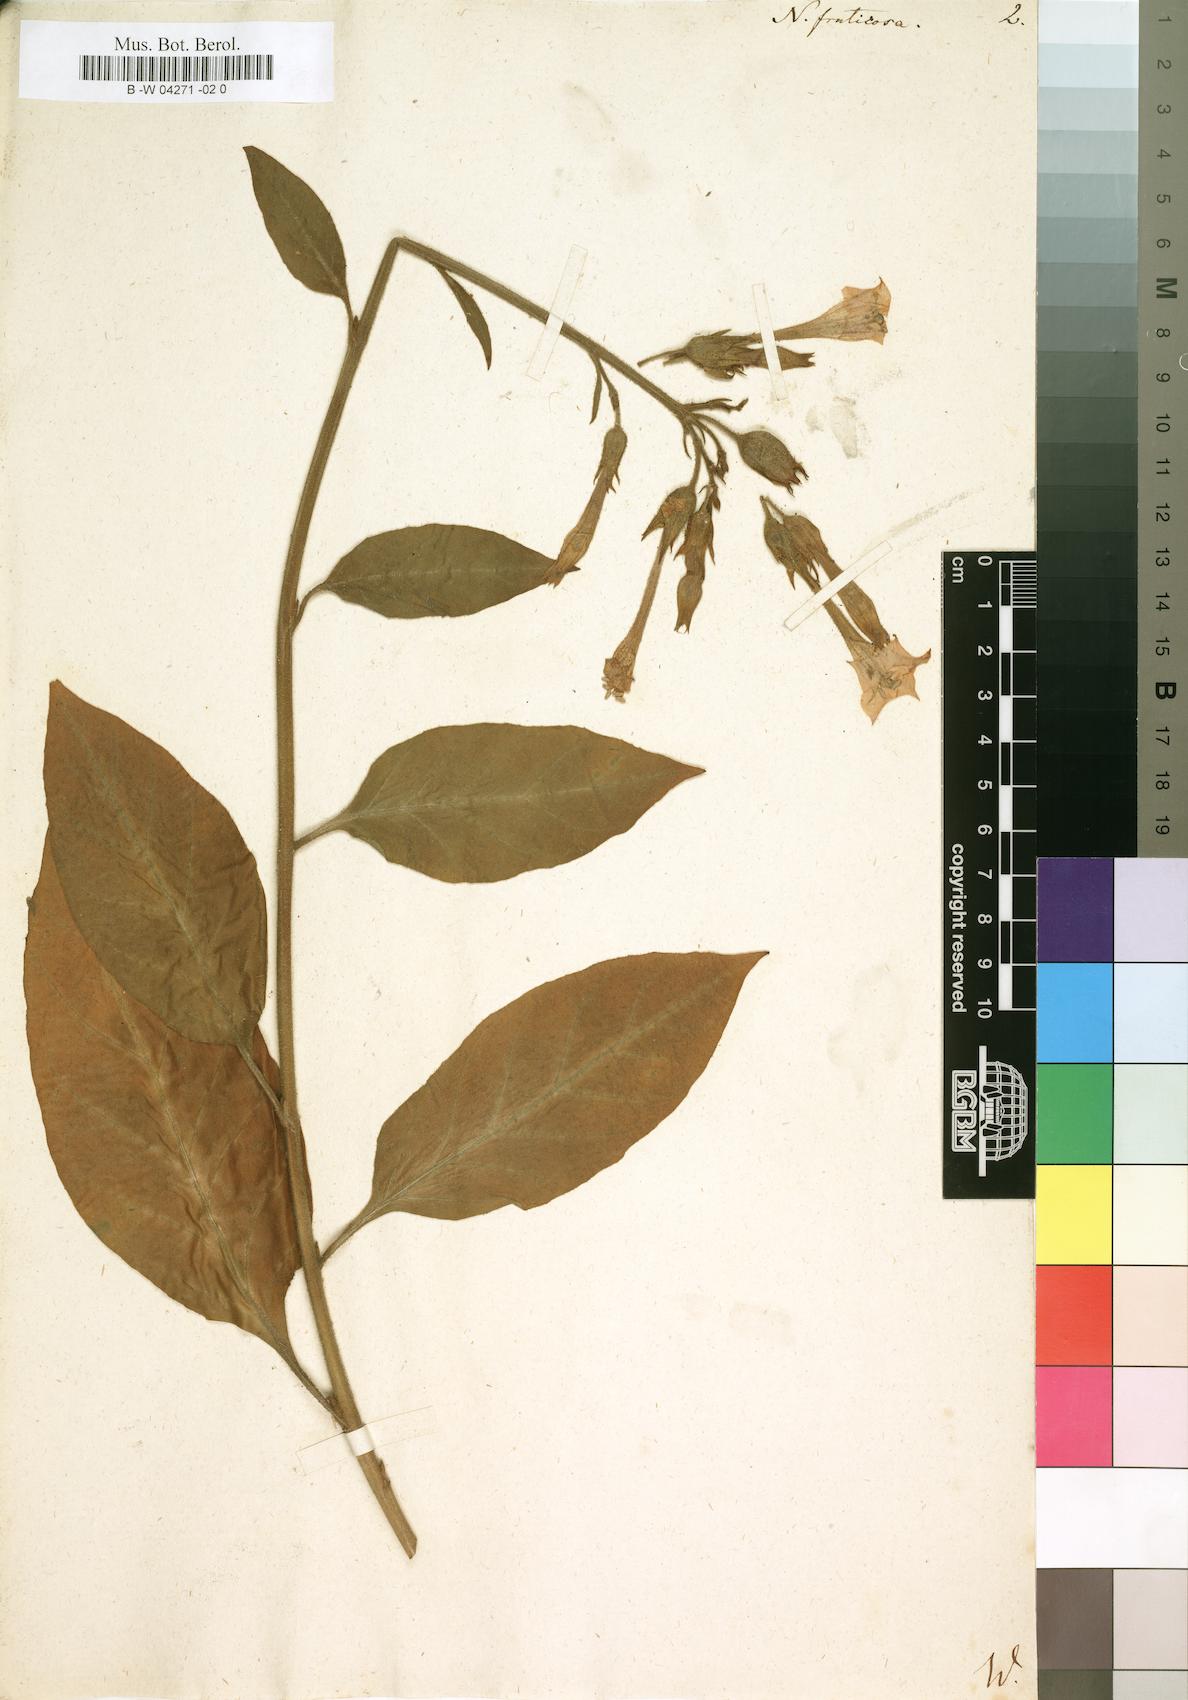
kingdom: Plantae
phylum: Tracheophyta
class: Magnoliopsida
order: Solanales
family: Solanaceae
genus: Nicotiana
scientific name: Nicotiana fruticosa
